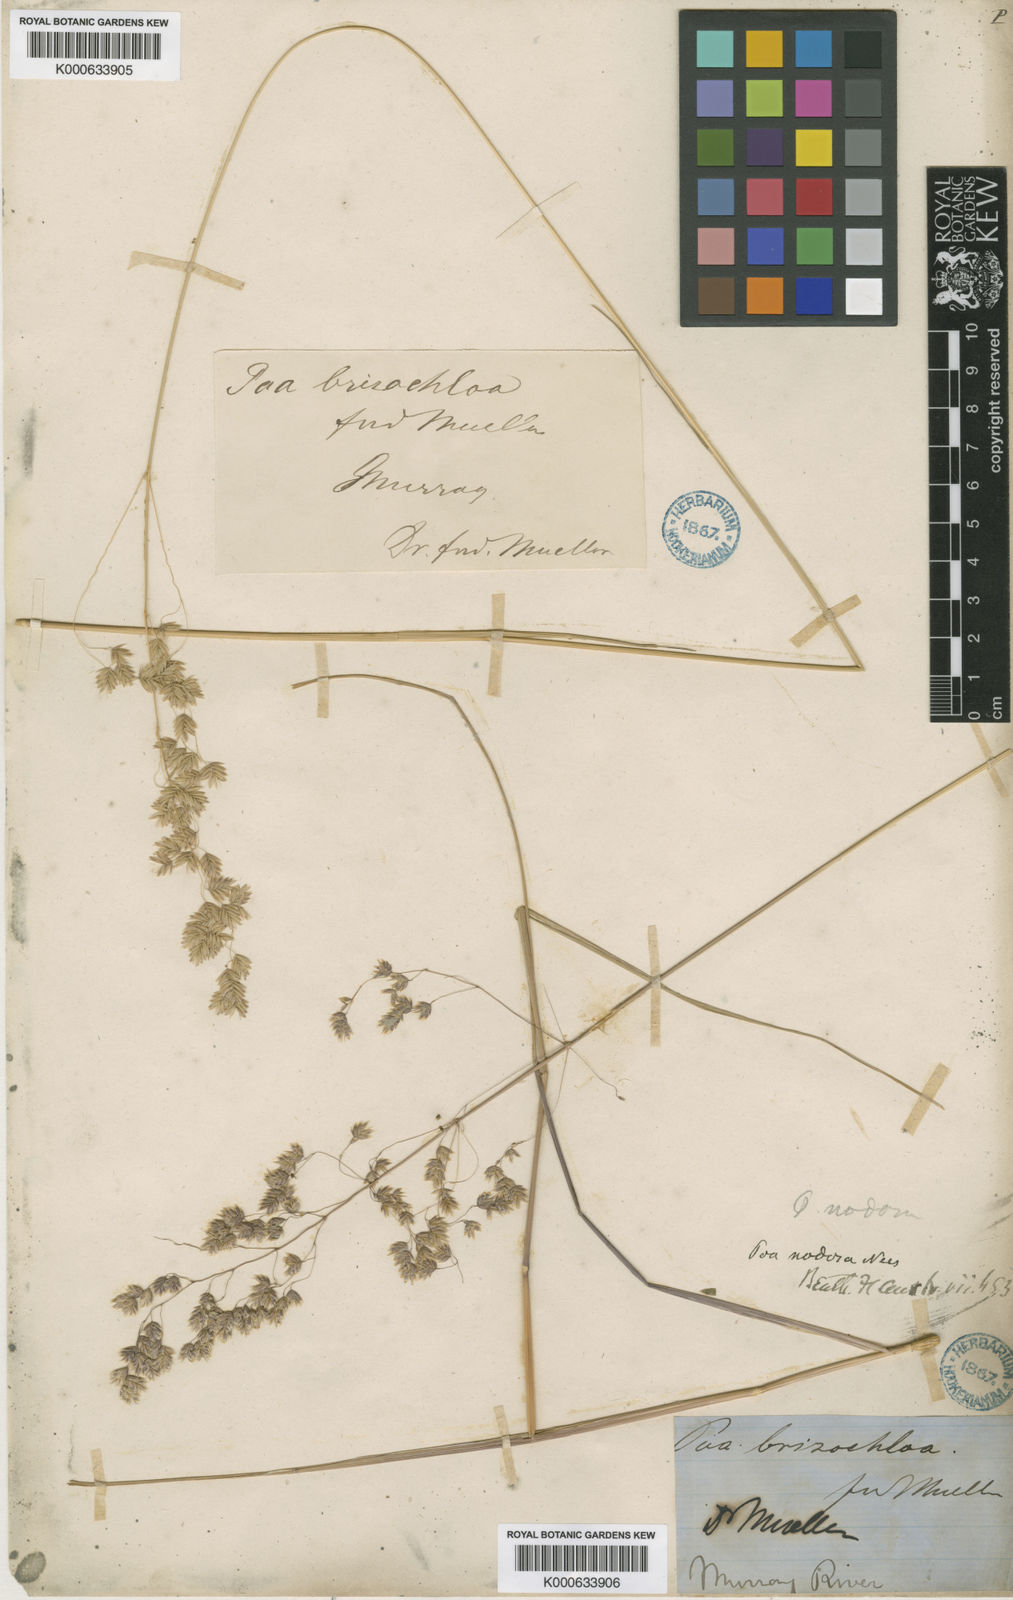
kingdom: Plantae
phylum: Tracheophyta
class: Liliopsida
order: Poales
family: Poaceae
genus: Poa
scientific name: Poa drummondiana
